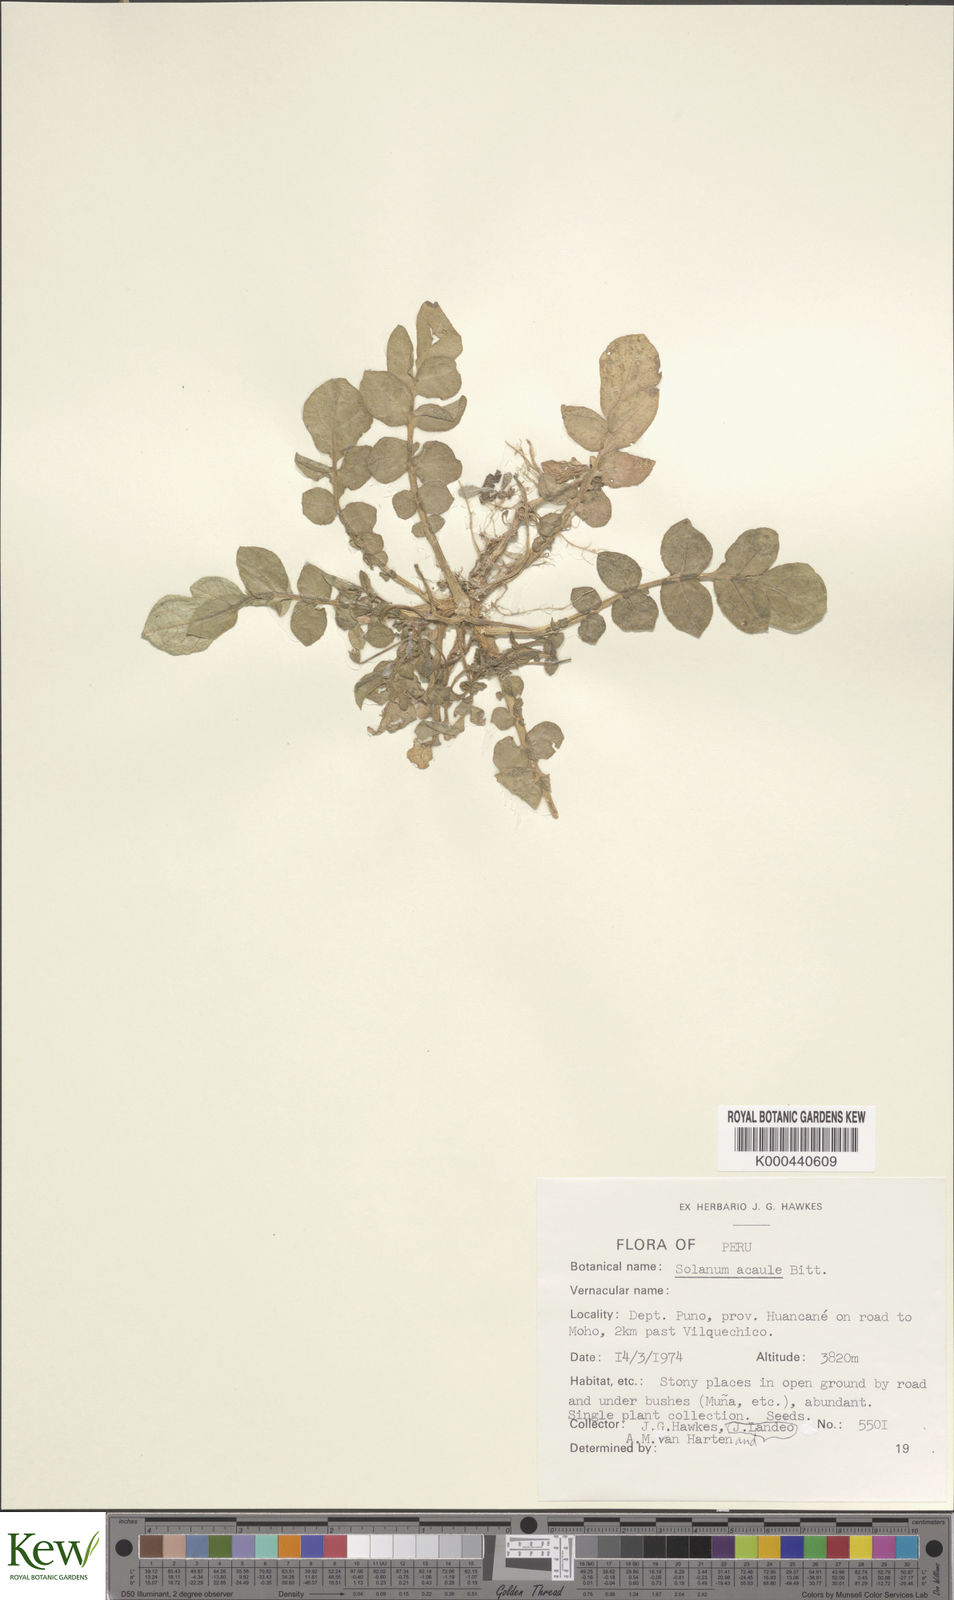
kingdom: Plantae
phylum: Tracheophyta
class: Magnoliopsida
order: Solanales
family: Solanaceae
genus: Solanum
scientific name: Solanum acaule
